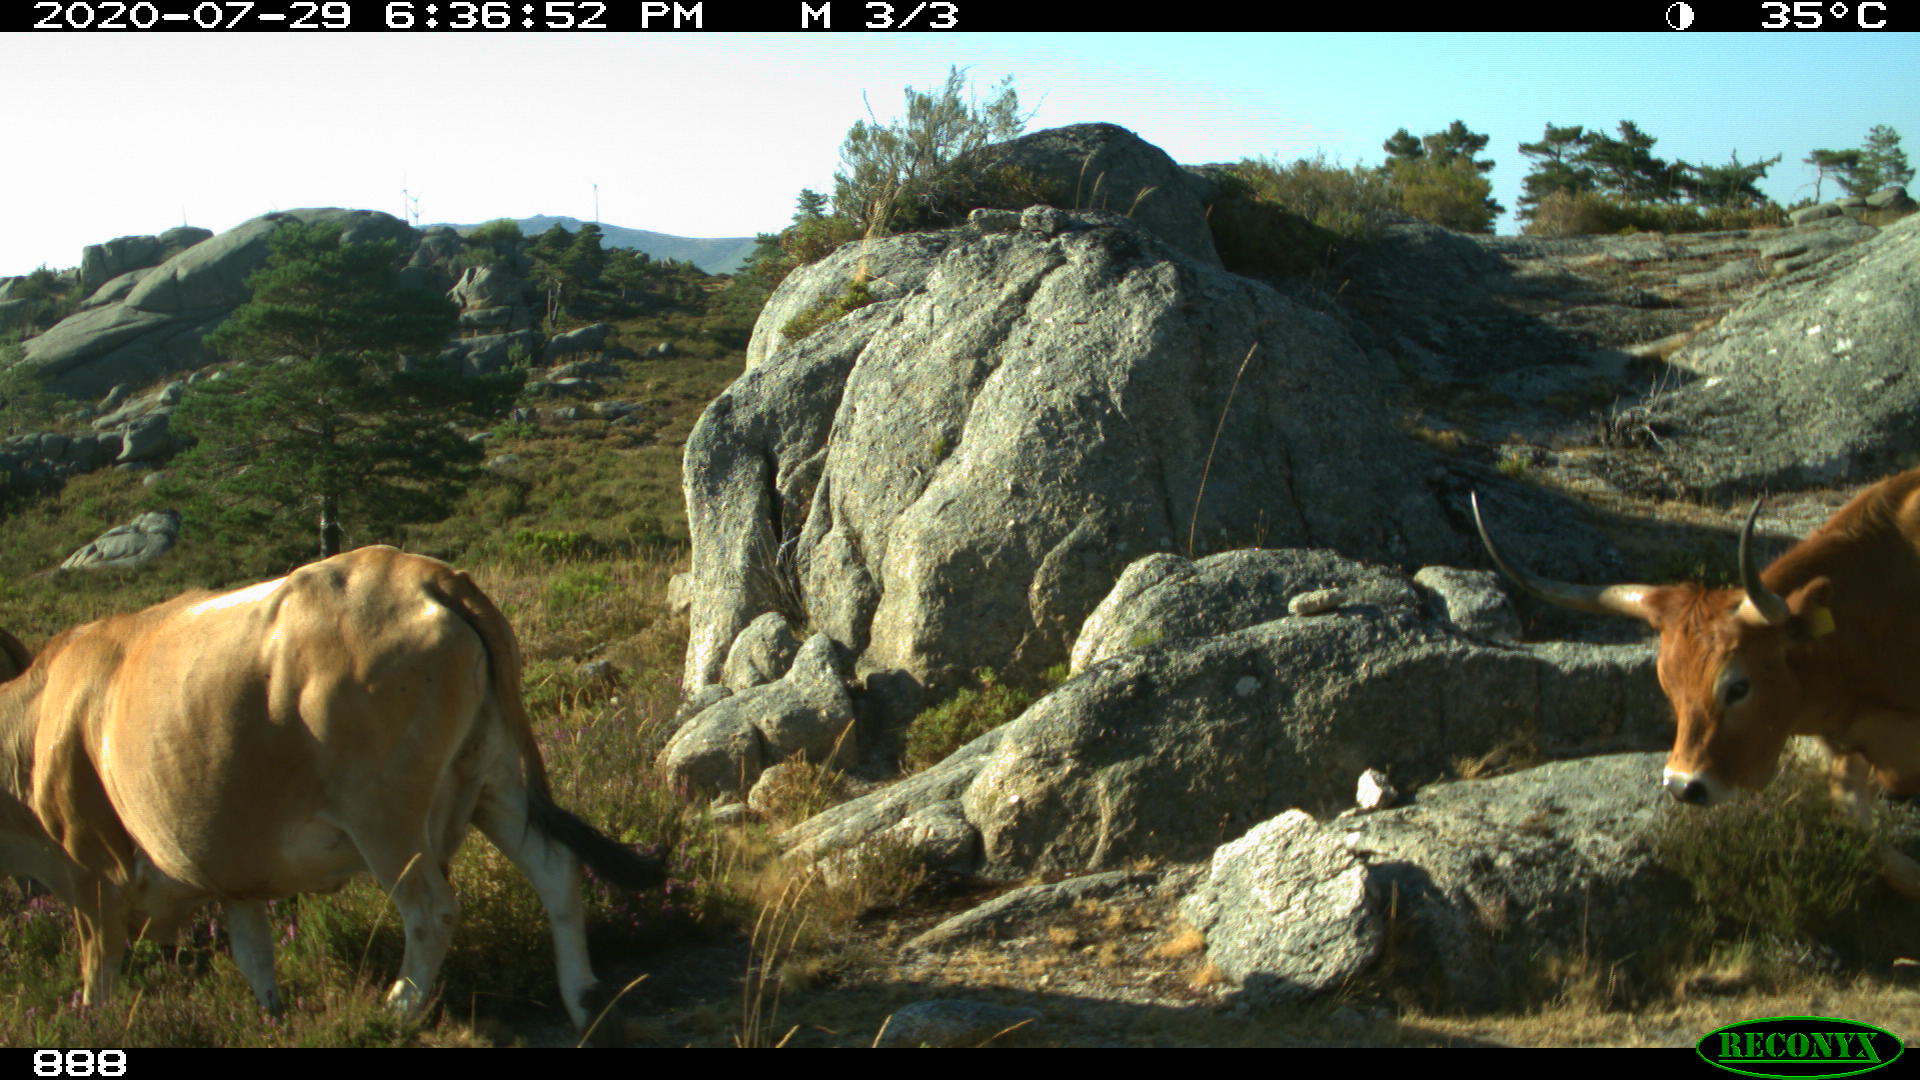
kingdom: Animalia
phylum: Chordata
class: Mammalia
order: Artiodactyla
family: Bovidae
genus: Bos
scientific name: Bos taurus
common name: Domesticated cattle
